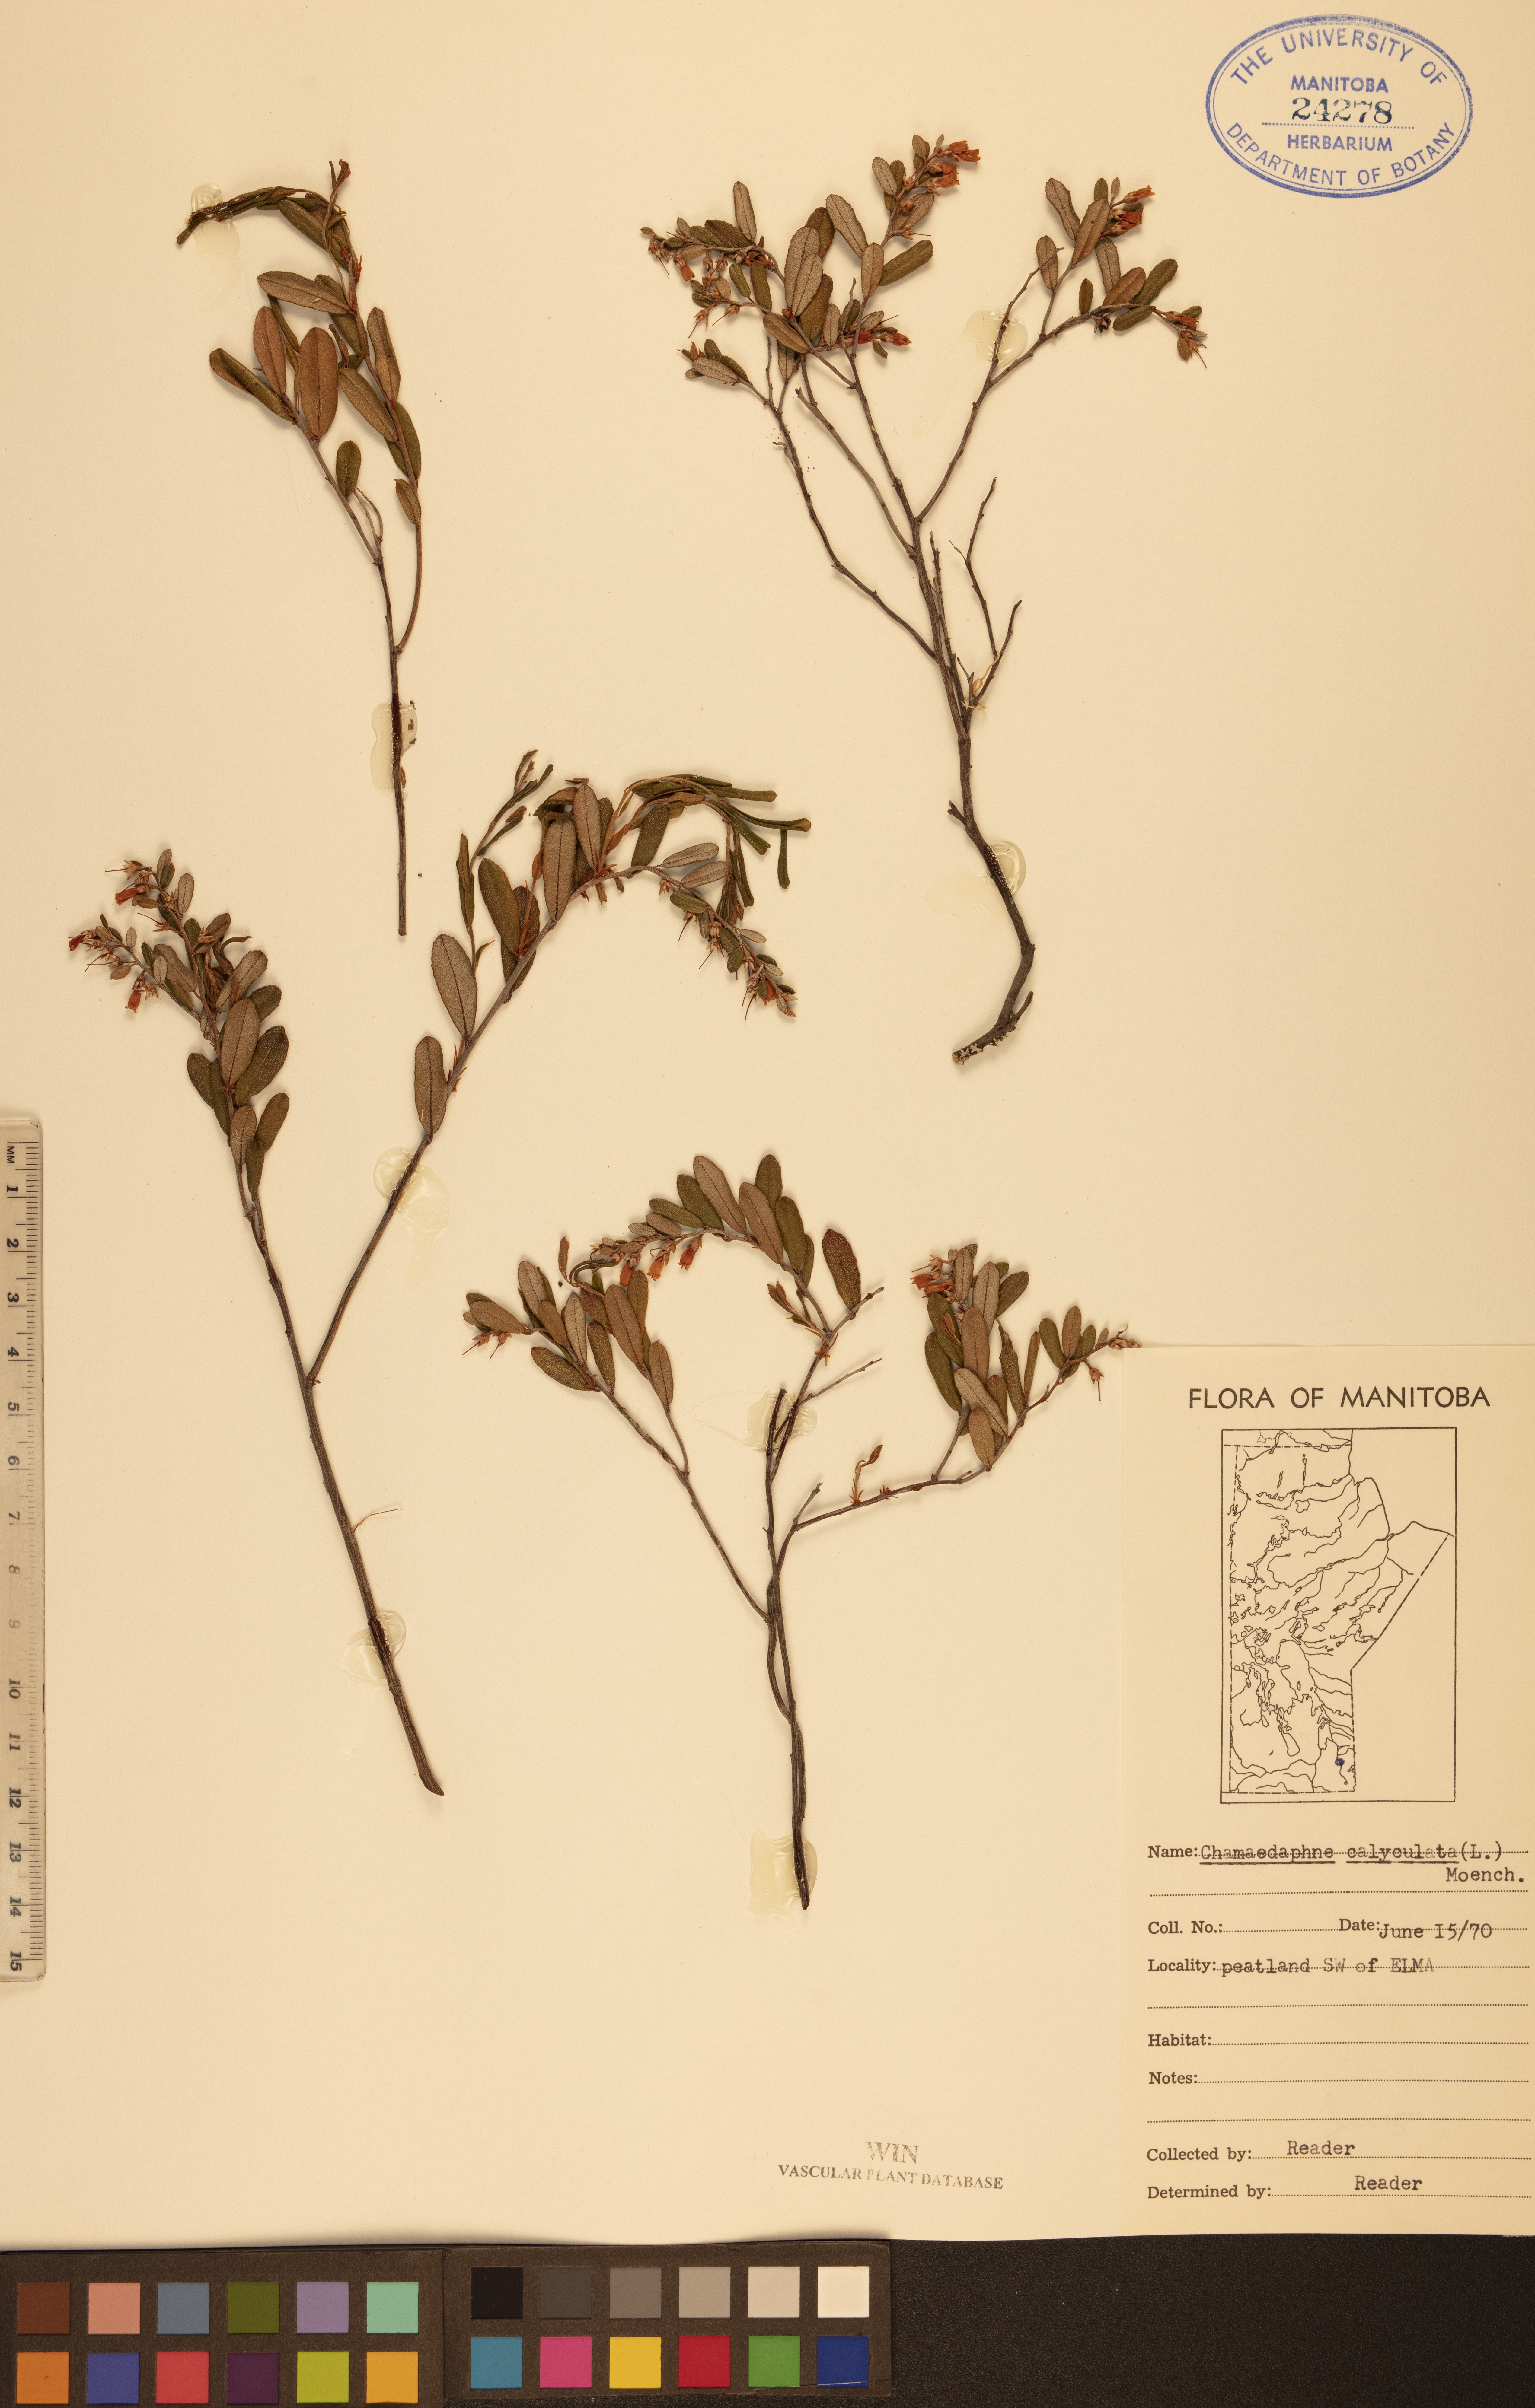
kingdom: Plantae
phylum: Tracheophyta
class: Magnoliopsida
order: Ericales
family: Ericaceae
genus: Chamaedaphne
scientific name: Chamaedaphne calyculata
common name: Leatherleaf
